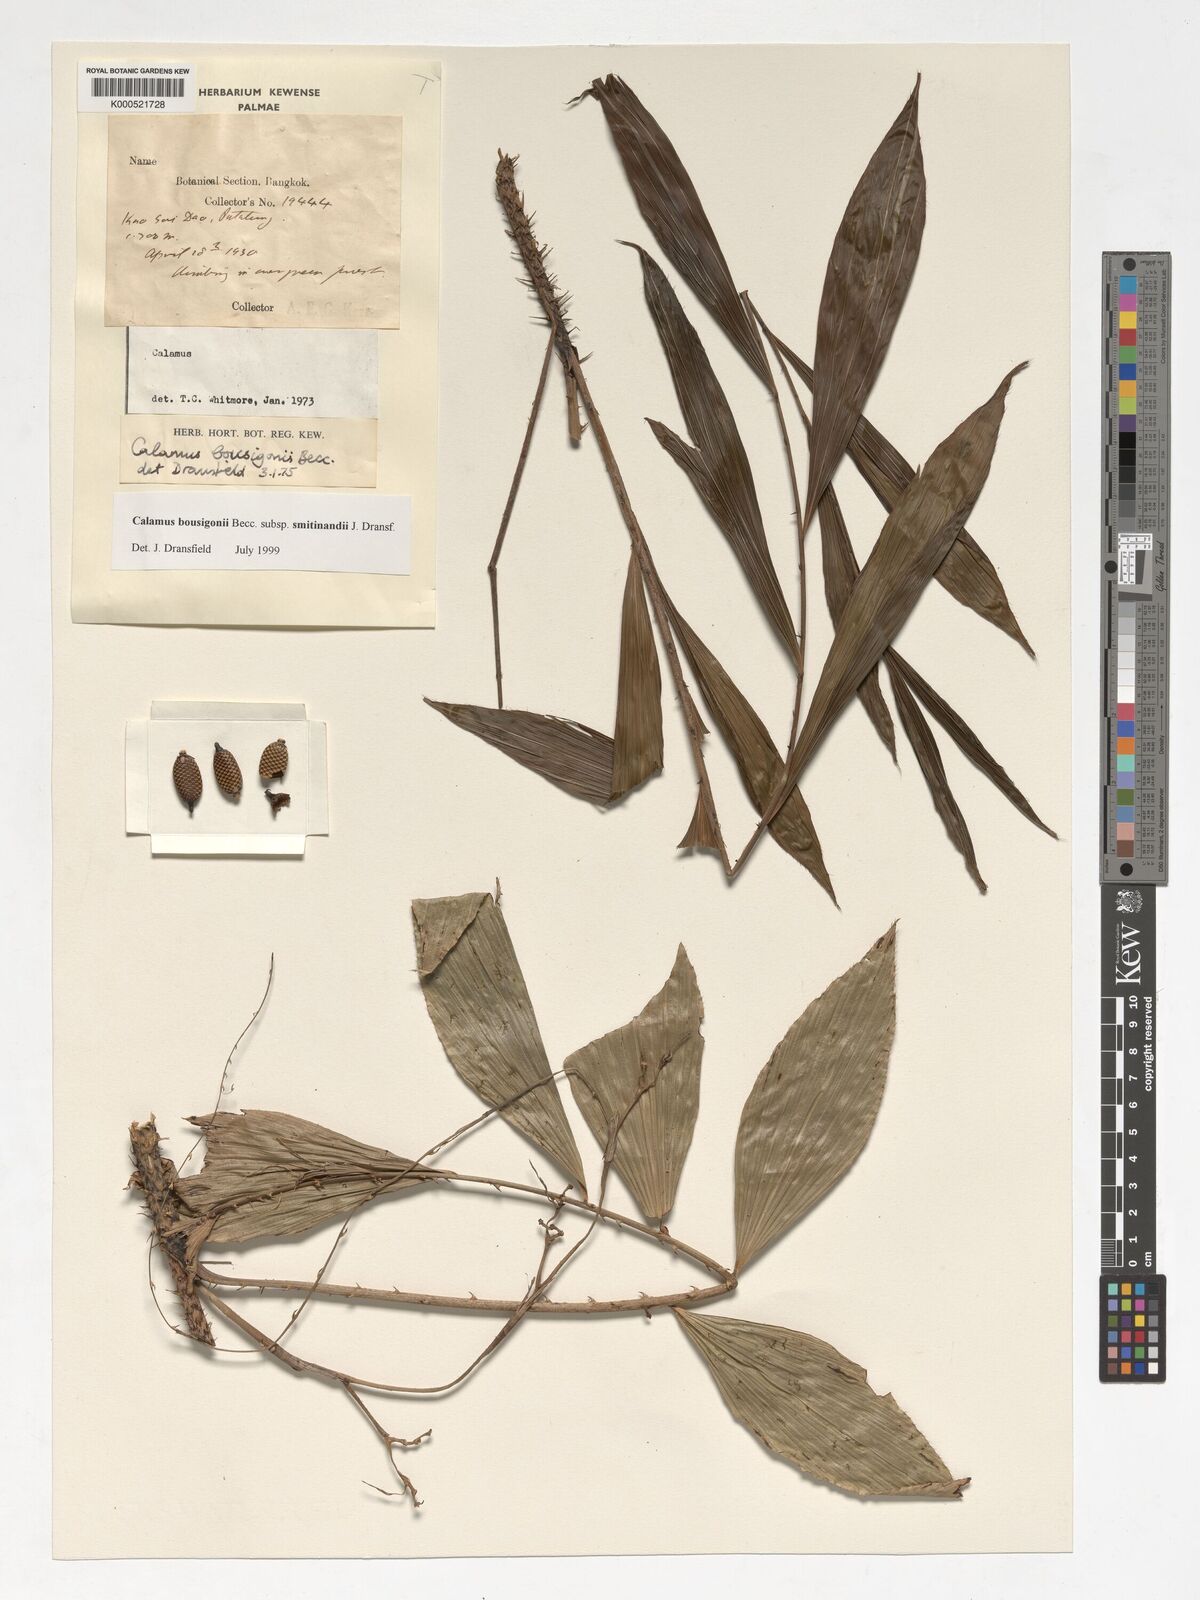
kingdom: Plantae
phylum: Tracheophyta
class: Liliopsida
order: Arecales
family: Arecaceae
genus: Calamus
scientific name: Calamus smitinandii
